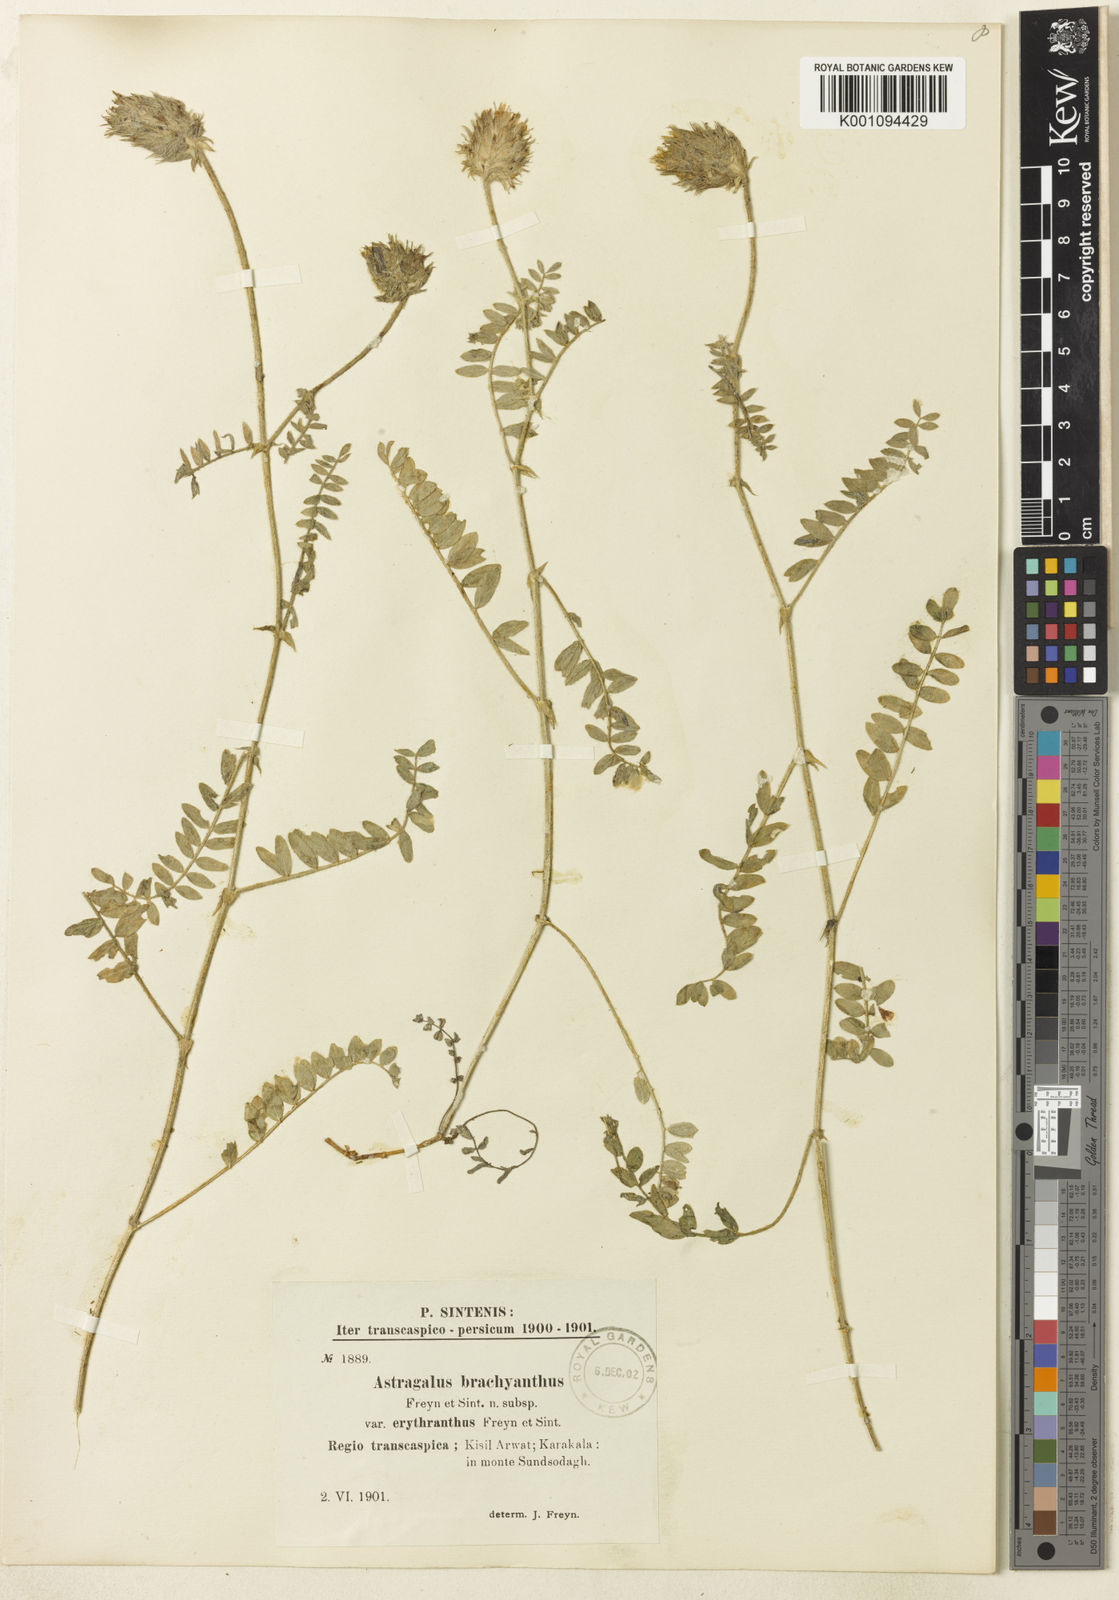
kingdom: Plantae
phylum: Tracheophyta
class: Magnoliopsida
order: Fabales
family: Fabaceae
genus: Astragalus
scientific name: Astragalus
